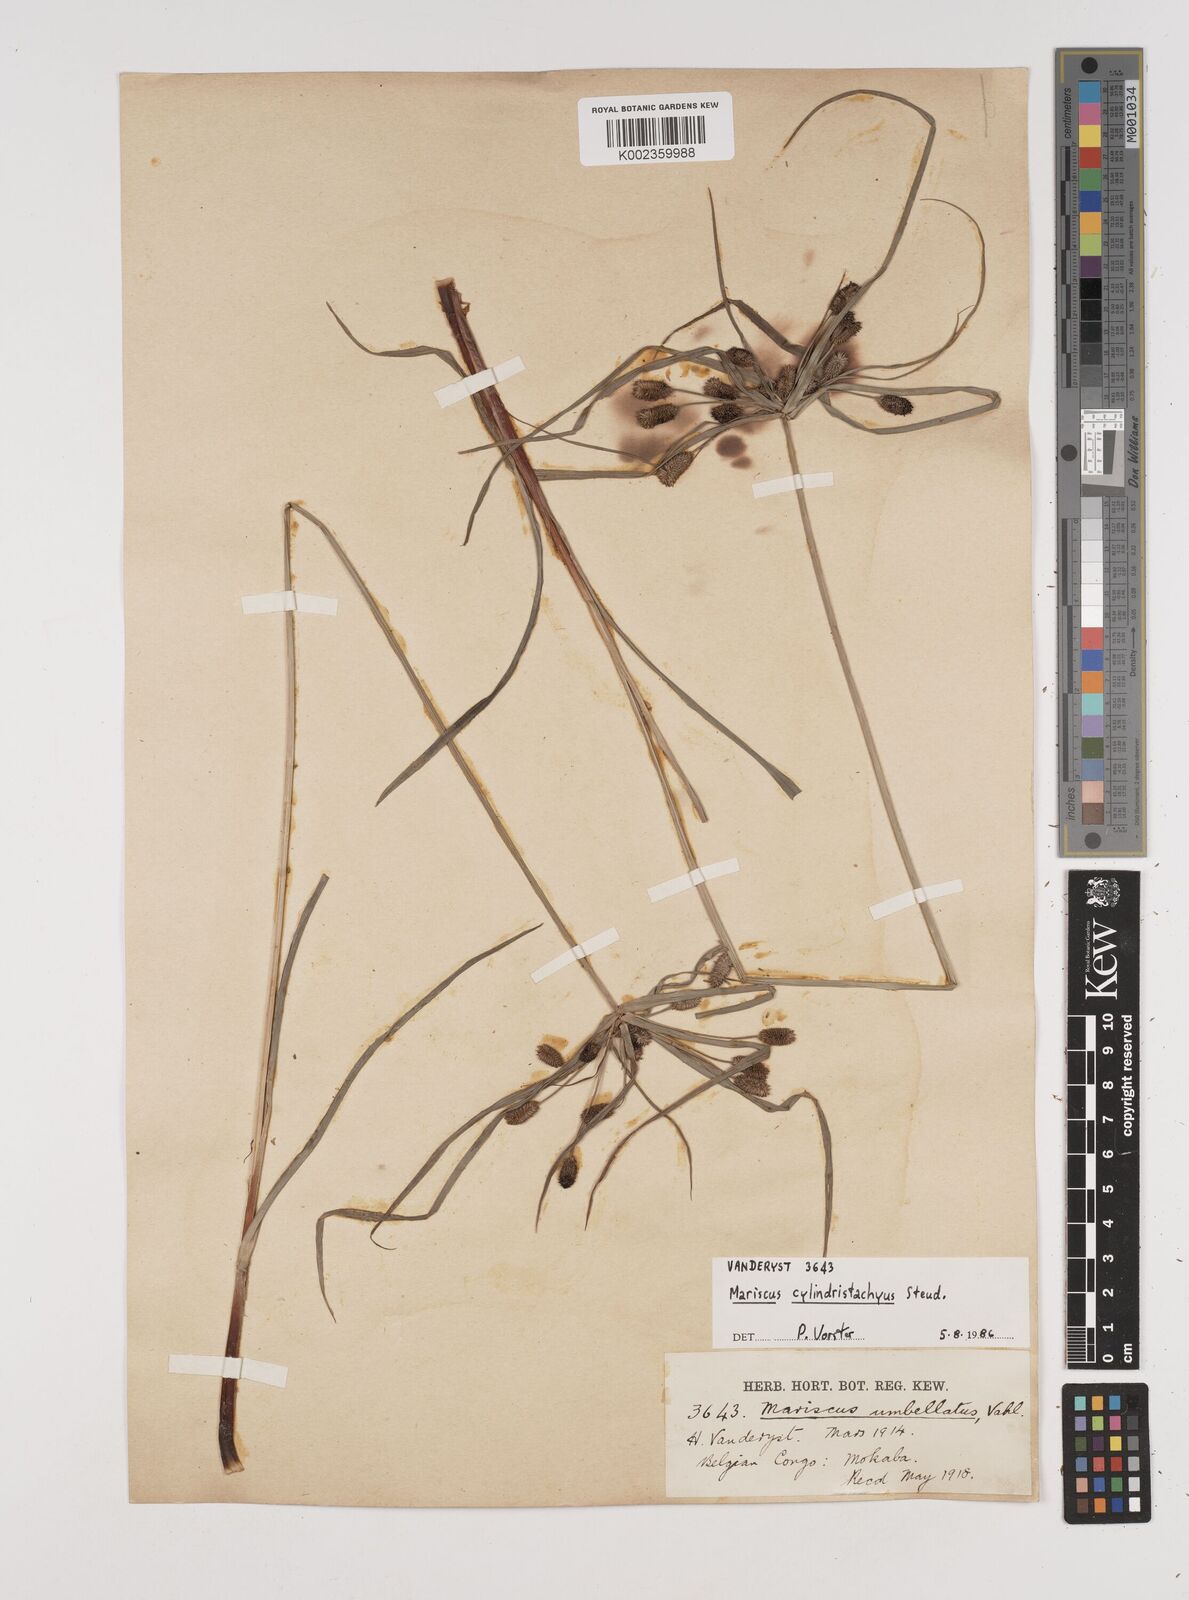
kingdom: Plantae
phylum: Tracheophyta
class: Liliopsida
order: Poales
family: Cyperaceae
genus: Cyperus
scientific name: Cyperus cyperoides
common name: Pacific island flat sedge
